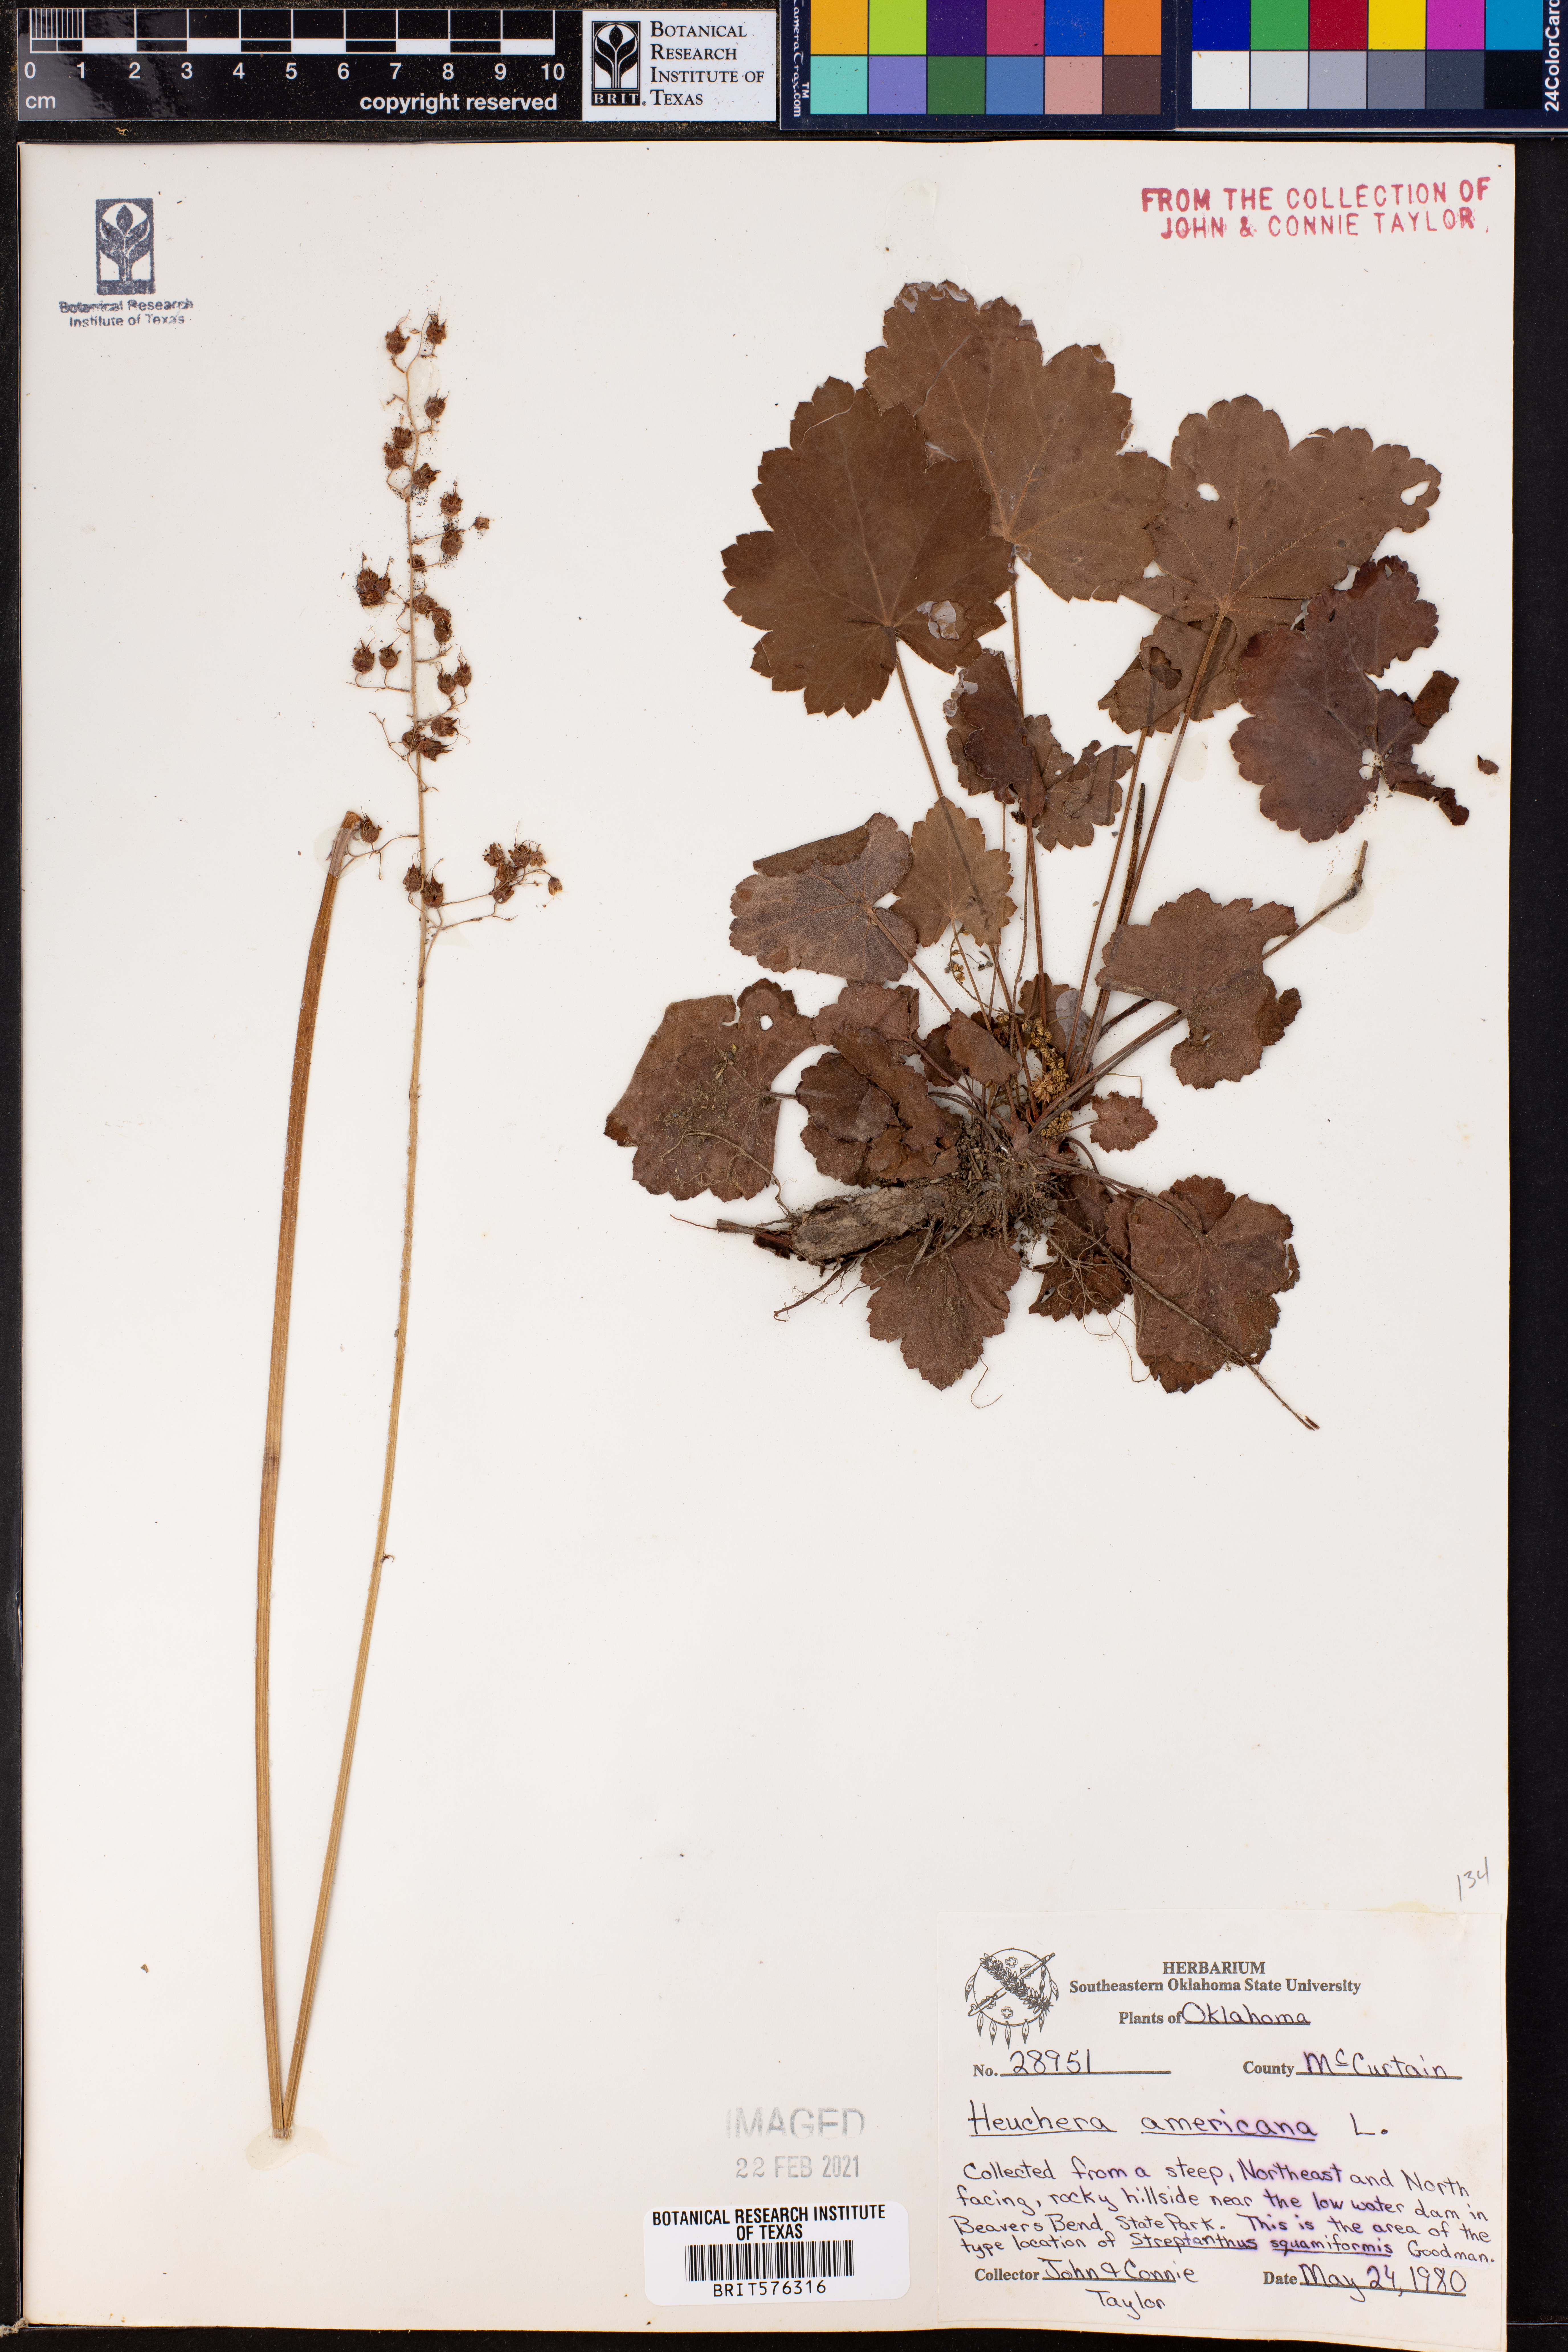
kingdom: Plantae
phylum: Tracheophyta
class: Magnoliopsida
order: Saxifragales
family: Saxifragaceae
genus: Heuchera
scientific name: Heuchera americana
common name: Alumroot
